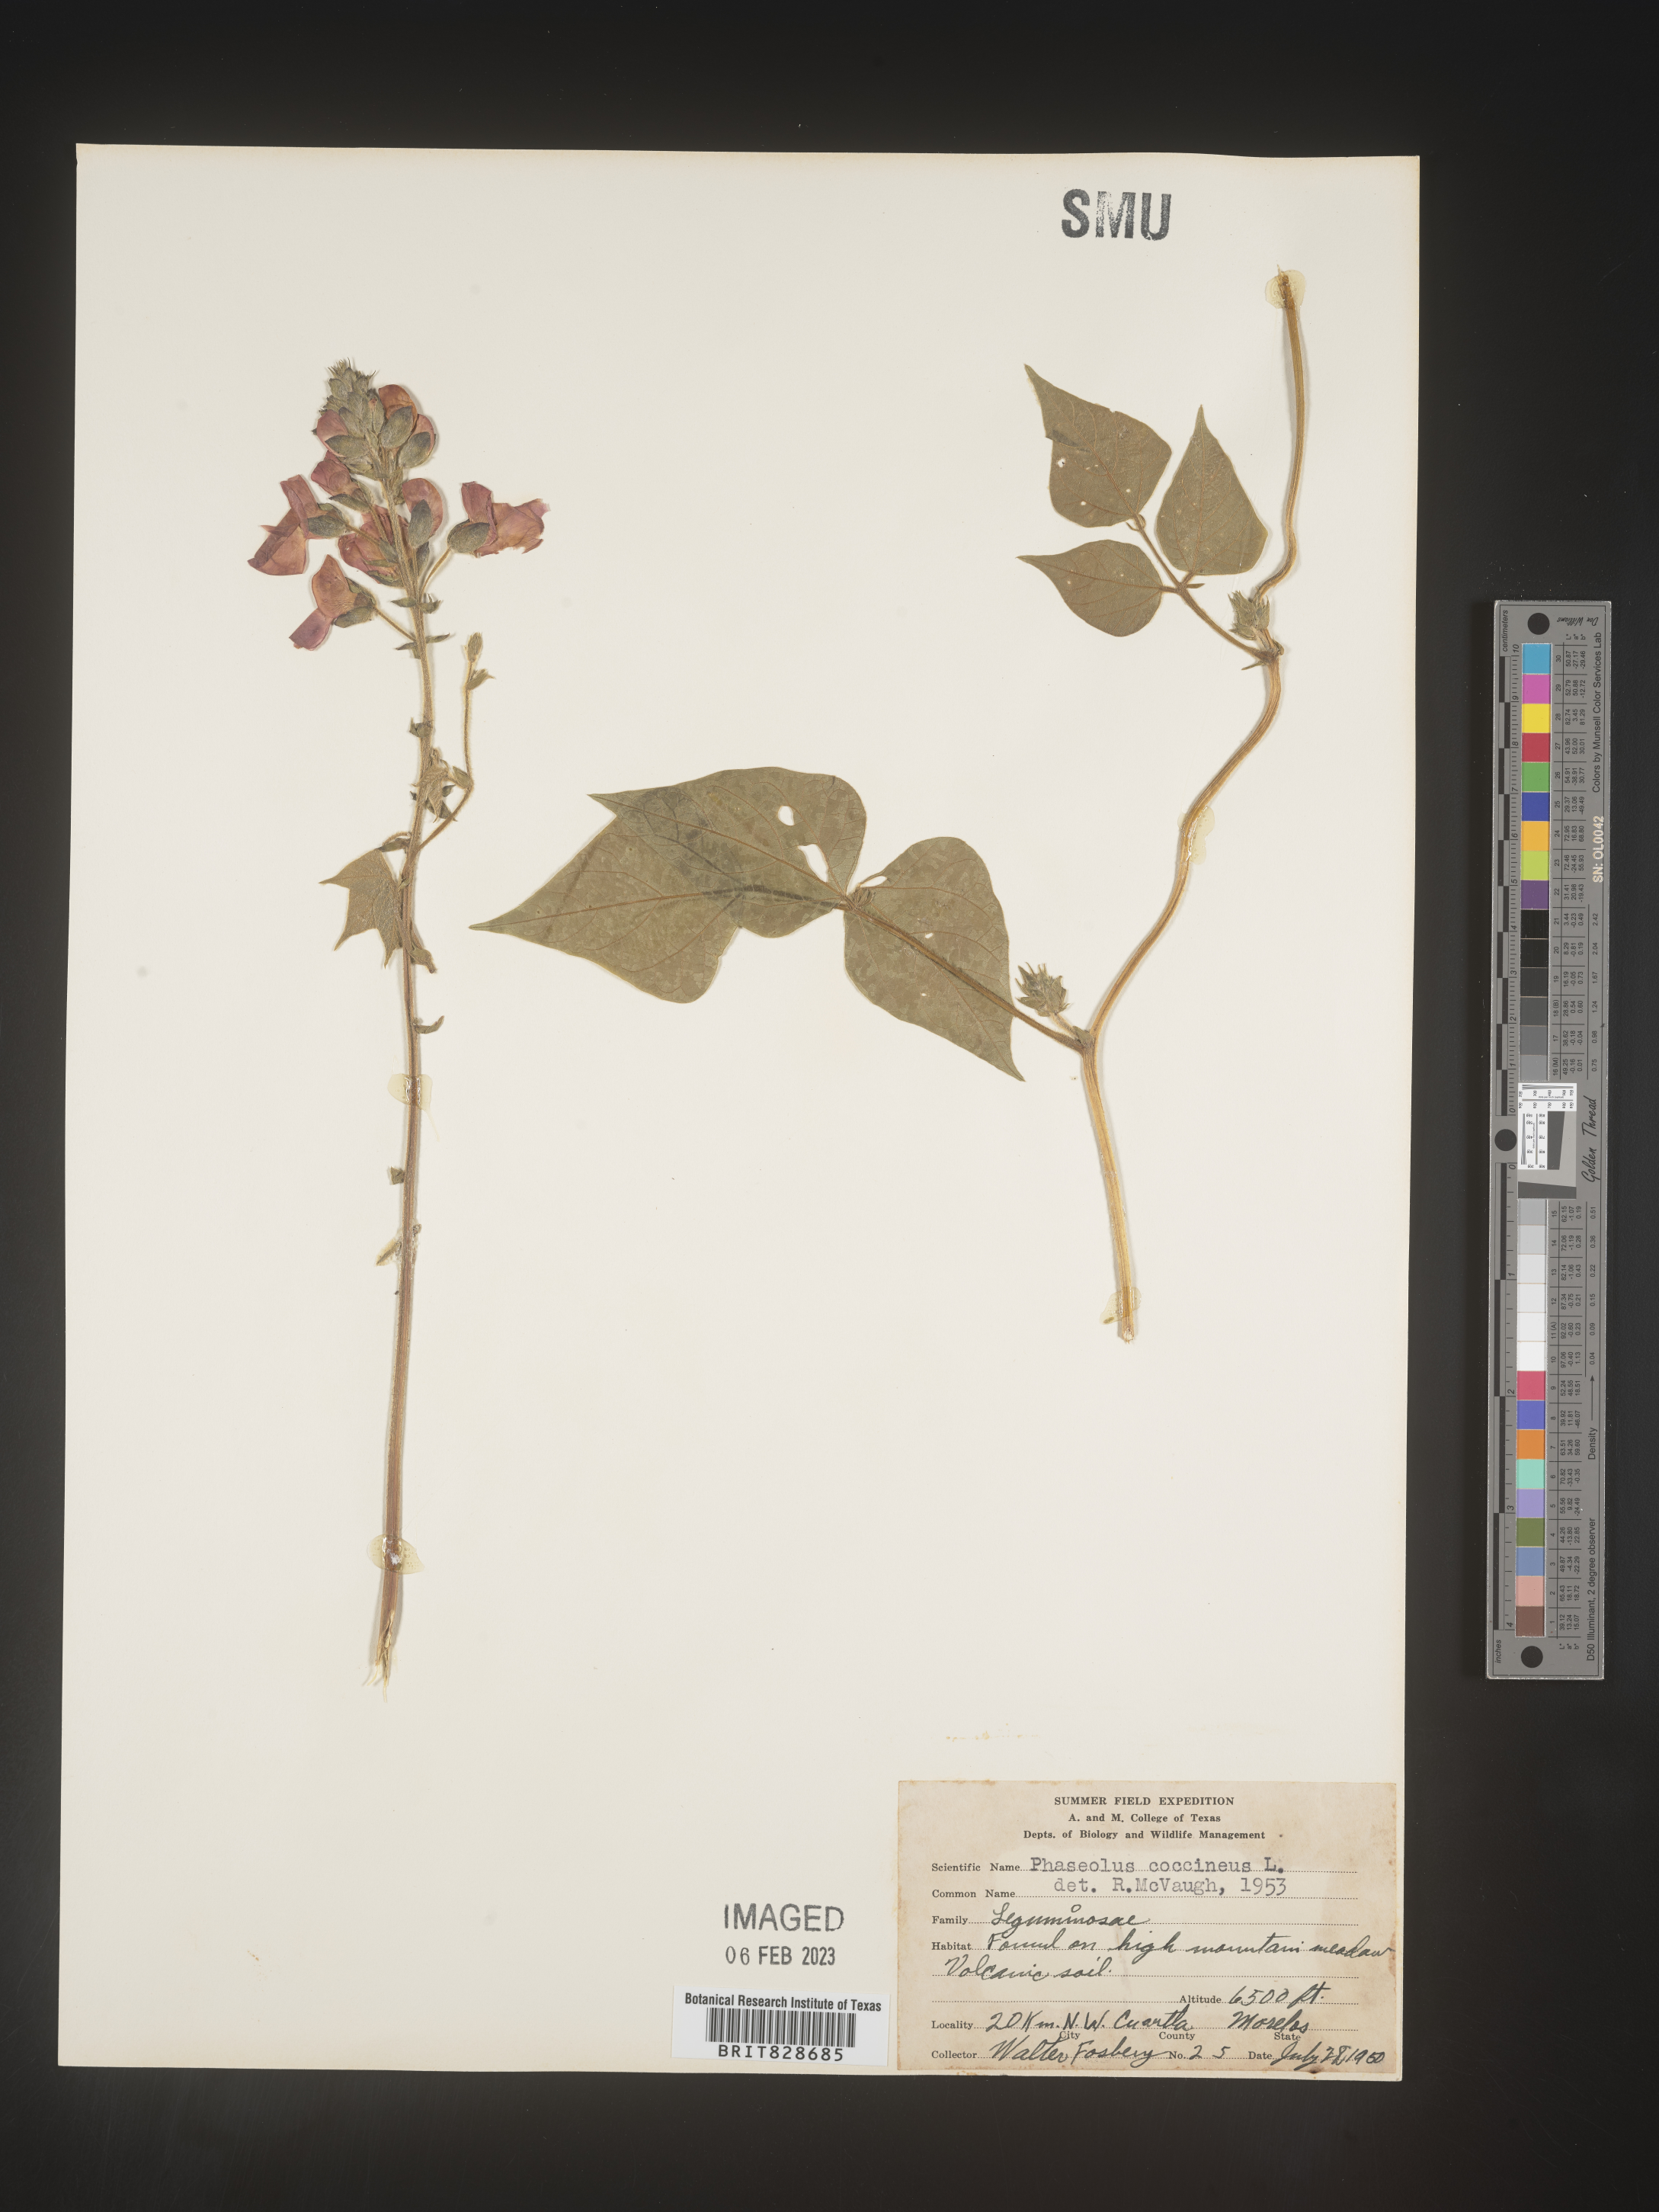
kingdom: Plantae
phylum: Tracheophyta
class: Magnoliopsida
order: Fabales
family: Fabaceae
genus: Phaseolus
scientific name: Phaseolus
